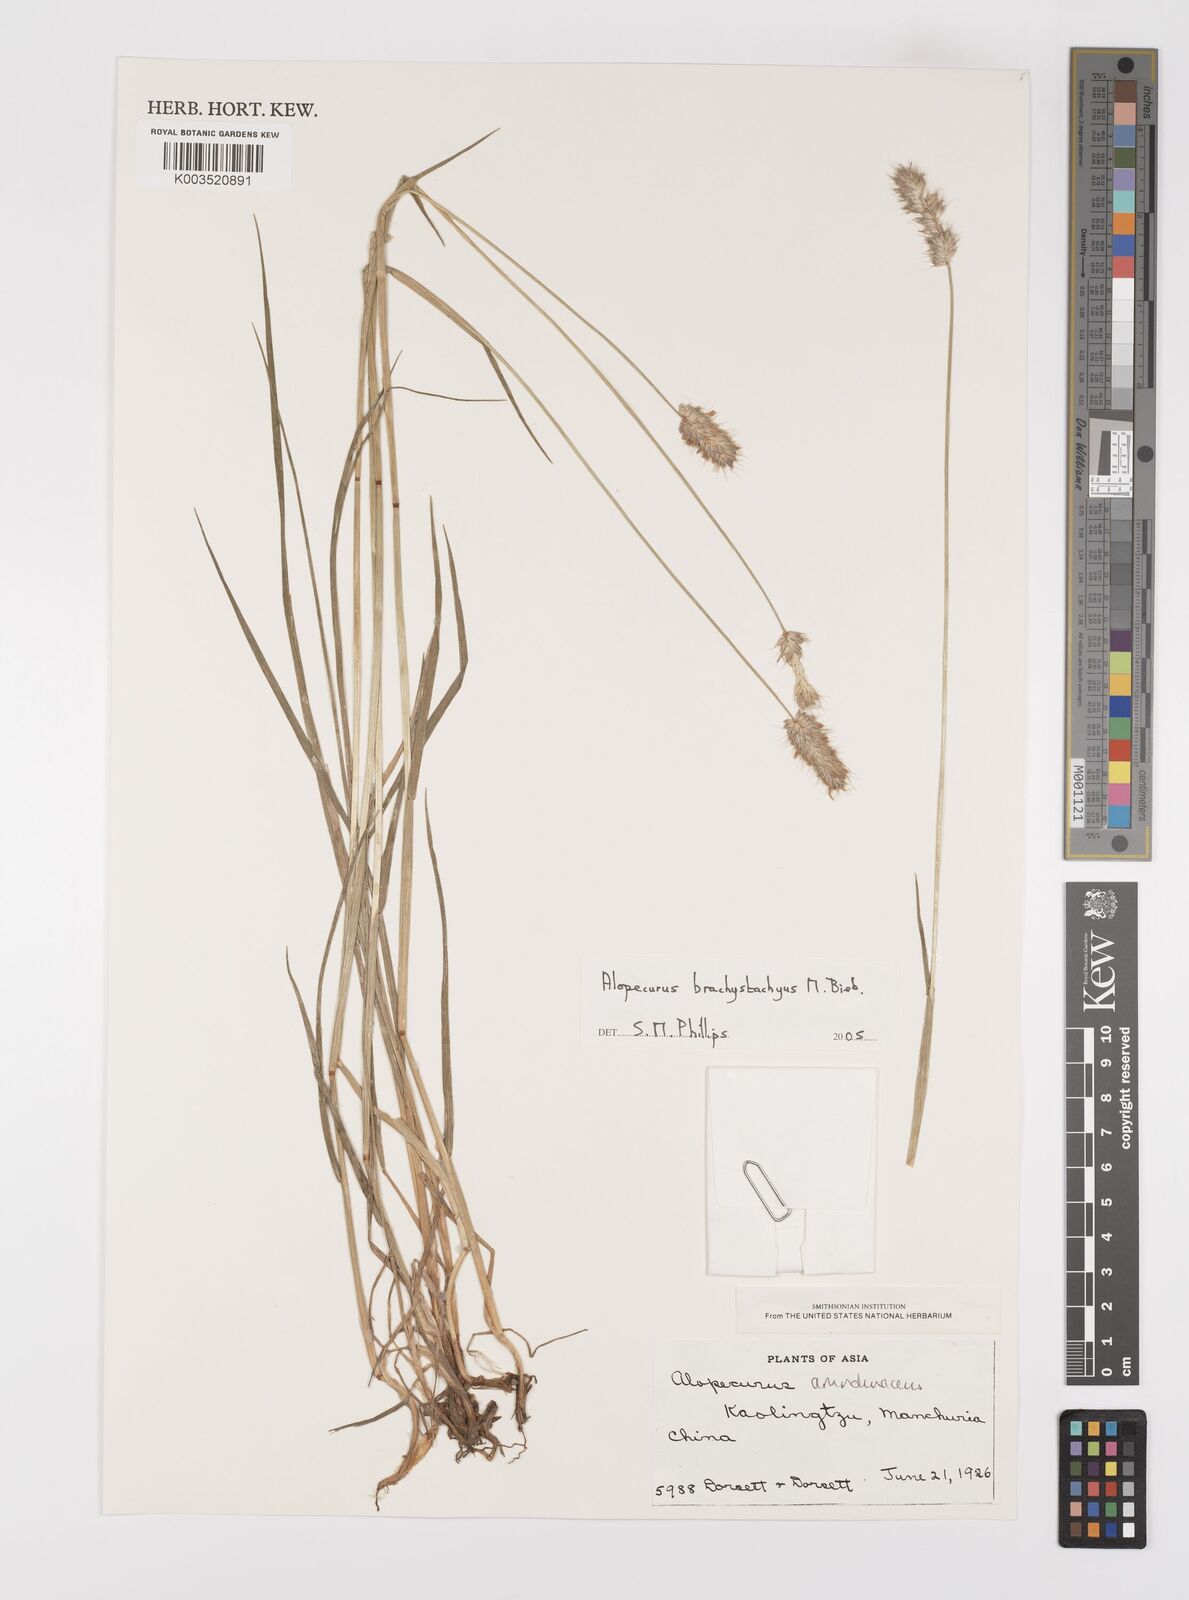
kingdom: Plantae
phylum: Tracheophyta
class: Liliopsida
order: Poales
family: Poaceae
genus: Alopecurus
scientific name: Alopecurus brachystachyus
